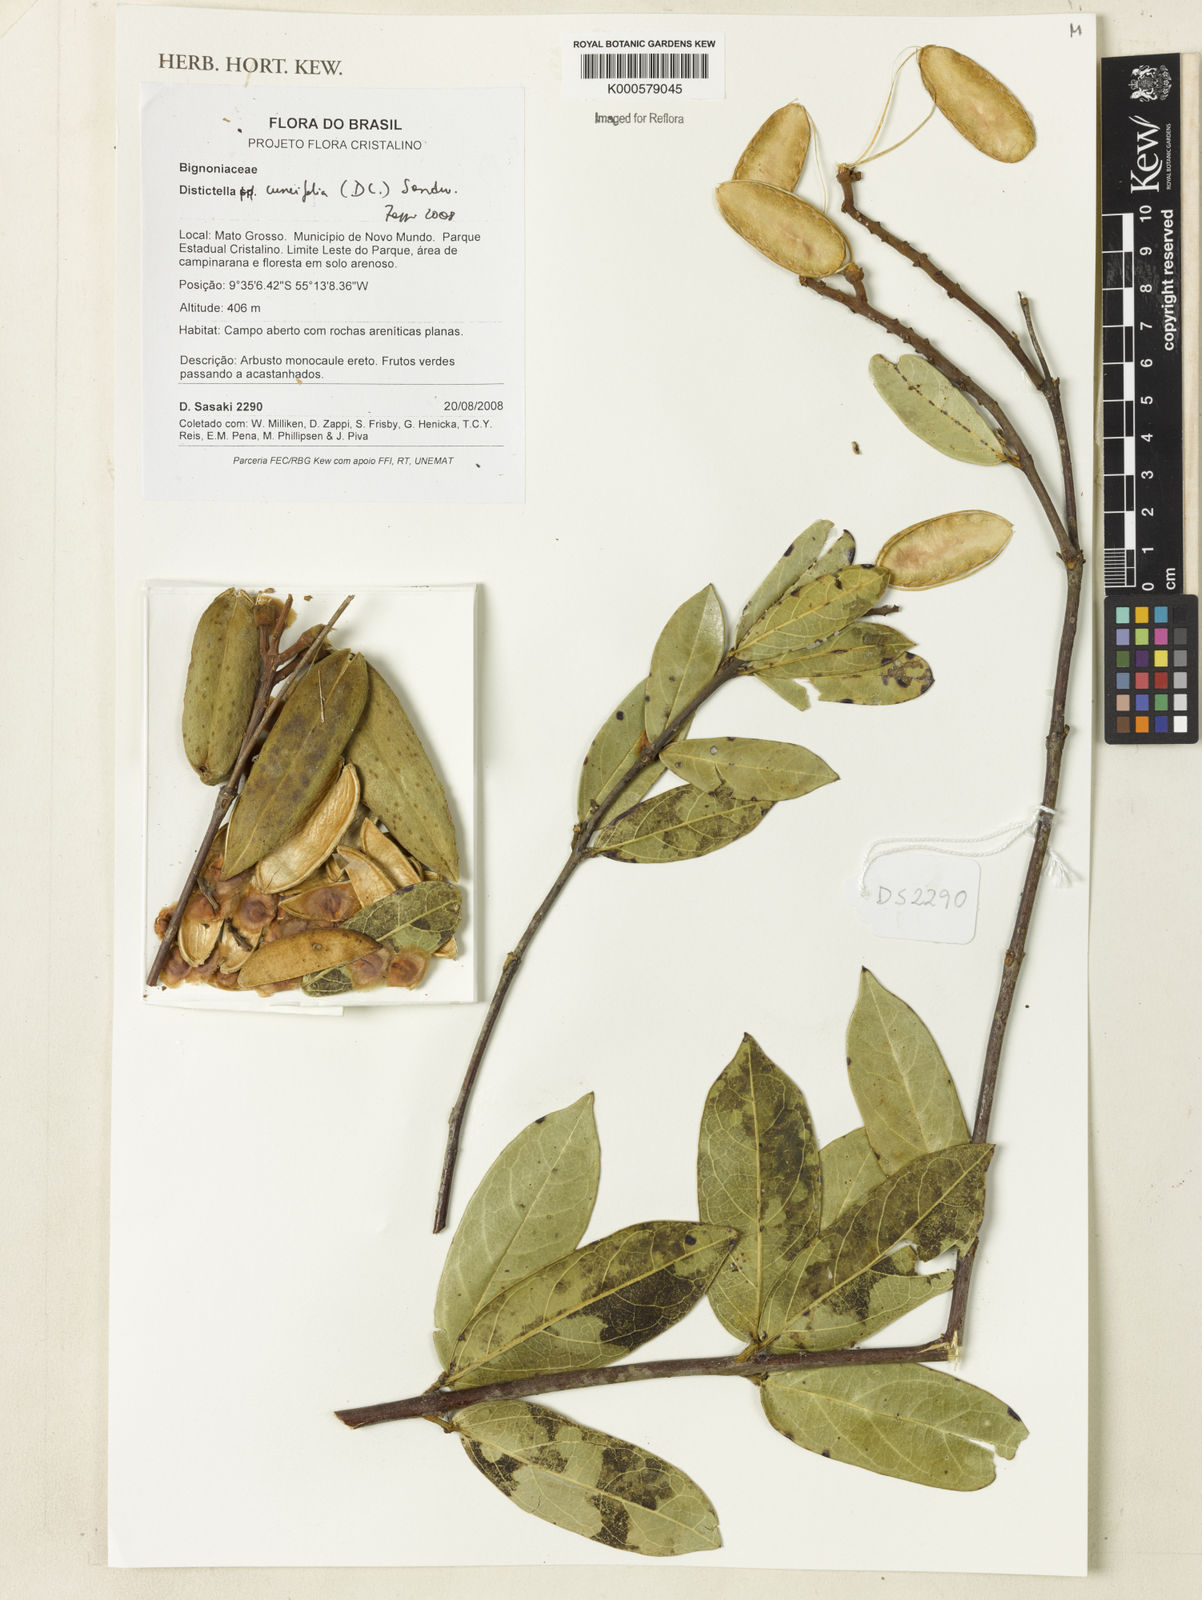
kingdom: Plantae
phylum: Tracheophyta
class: Magnoliopsida
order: Lamiales
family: Bignoniaceae
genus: Amphilophium
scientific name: Amphilophium cuneifolium
